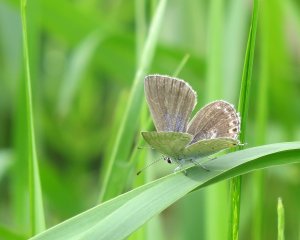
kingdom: Animalia
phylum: Arthropoda
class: Insecta
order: Lepidoptera
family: Lycaenidae
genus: Elkalyce
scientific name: Elkalyce amyntula
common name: Western Tailed-Blue
